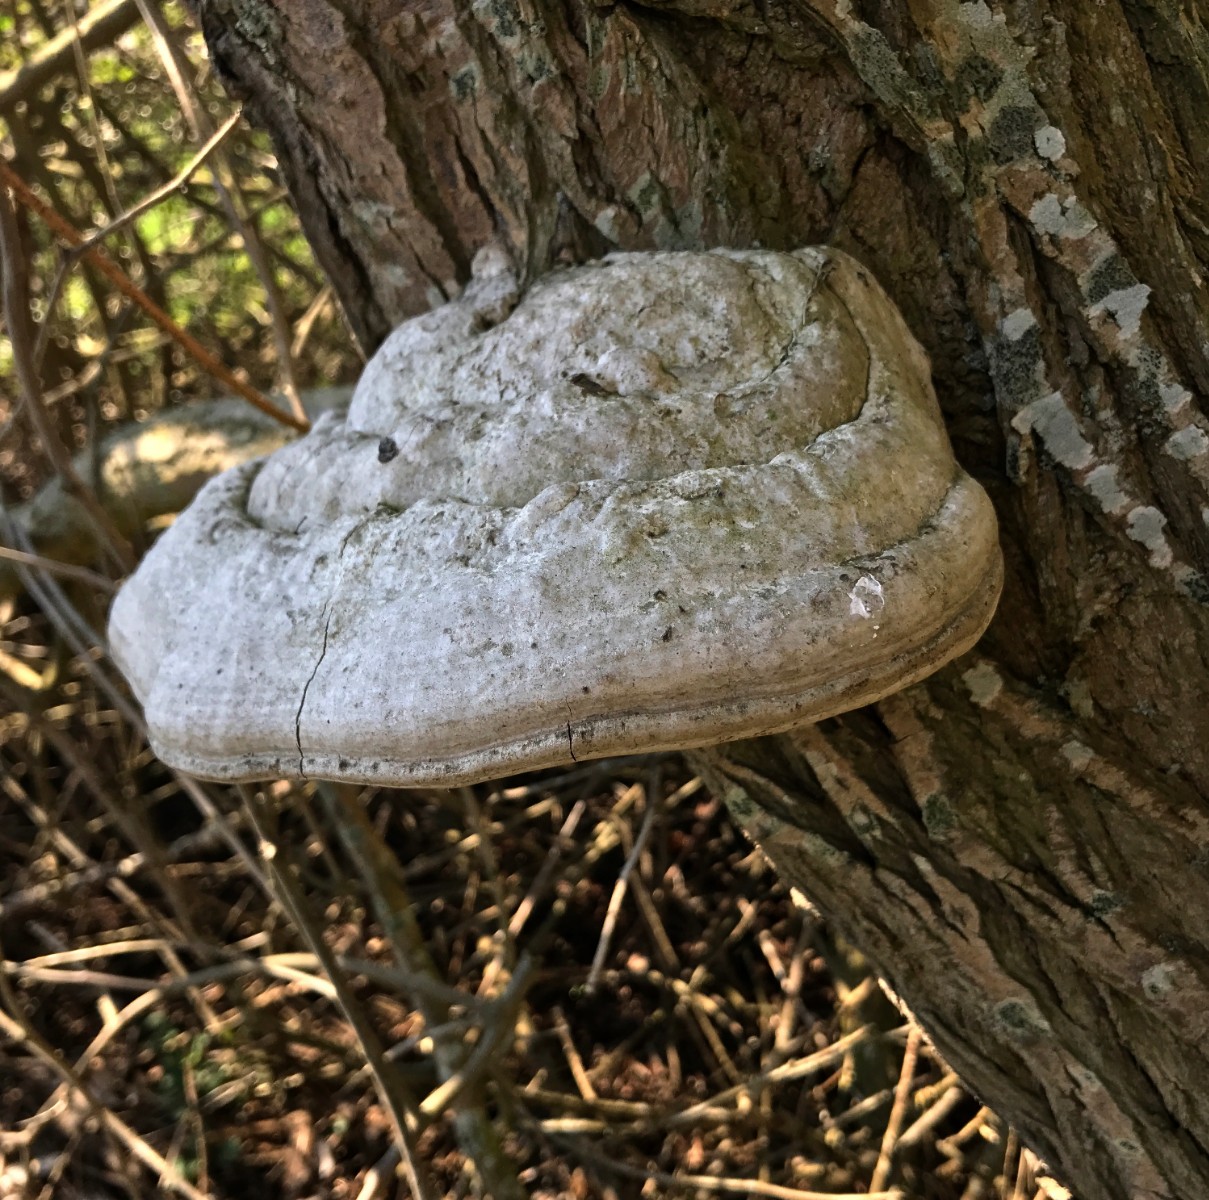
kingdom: Fungi
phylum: Basidiomycota
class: Agaricomycetes
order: Polyporales
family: Polyporaceae
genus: Fomes
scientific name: Fomes fomentarius
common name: tøndersvamp
